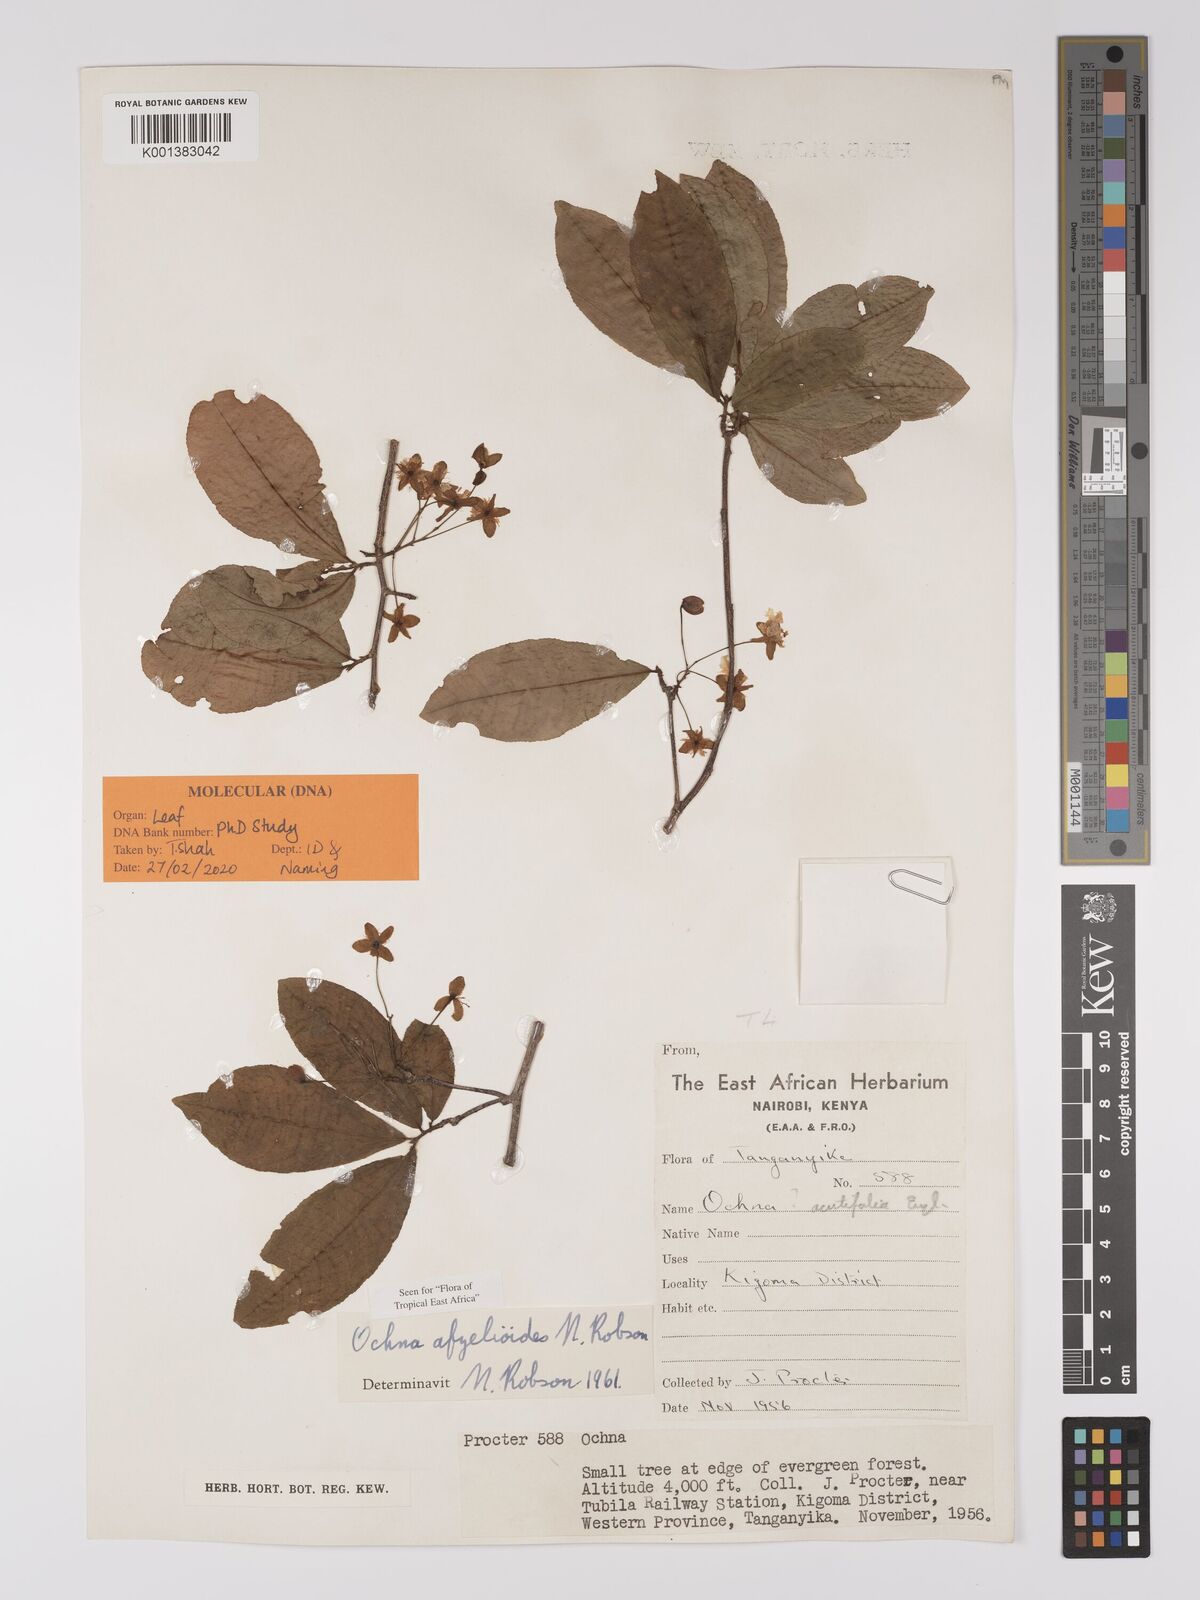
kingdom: Plantae
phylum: Tracheophyta
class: Magnoliopsida
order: Malpighiales
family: Ochnaceae
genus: Ochna
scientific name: Ochna afzelioides
